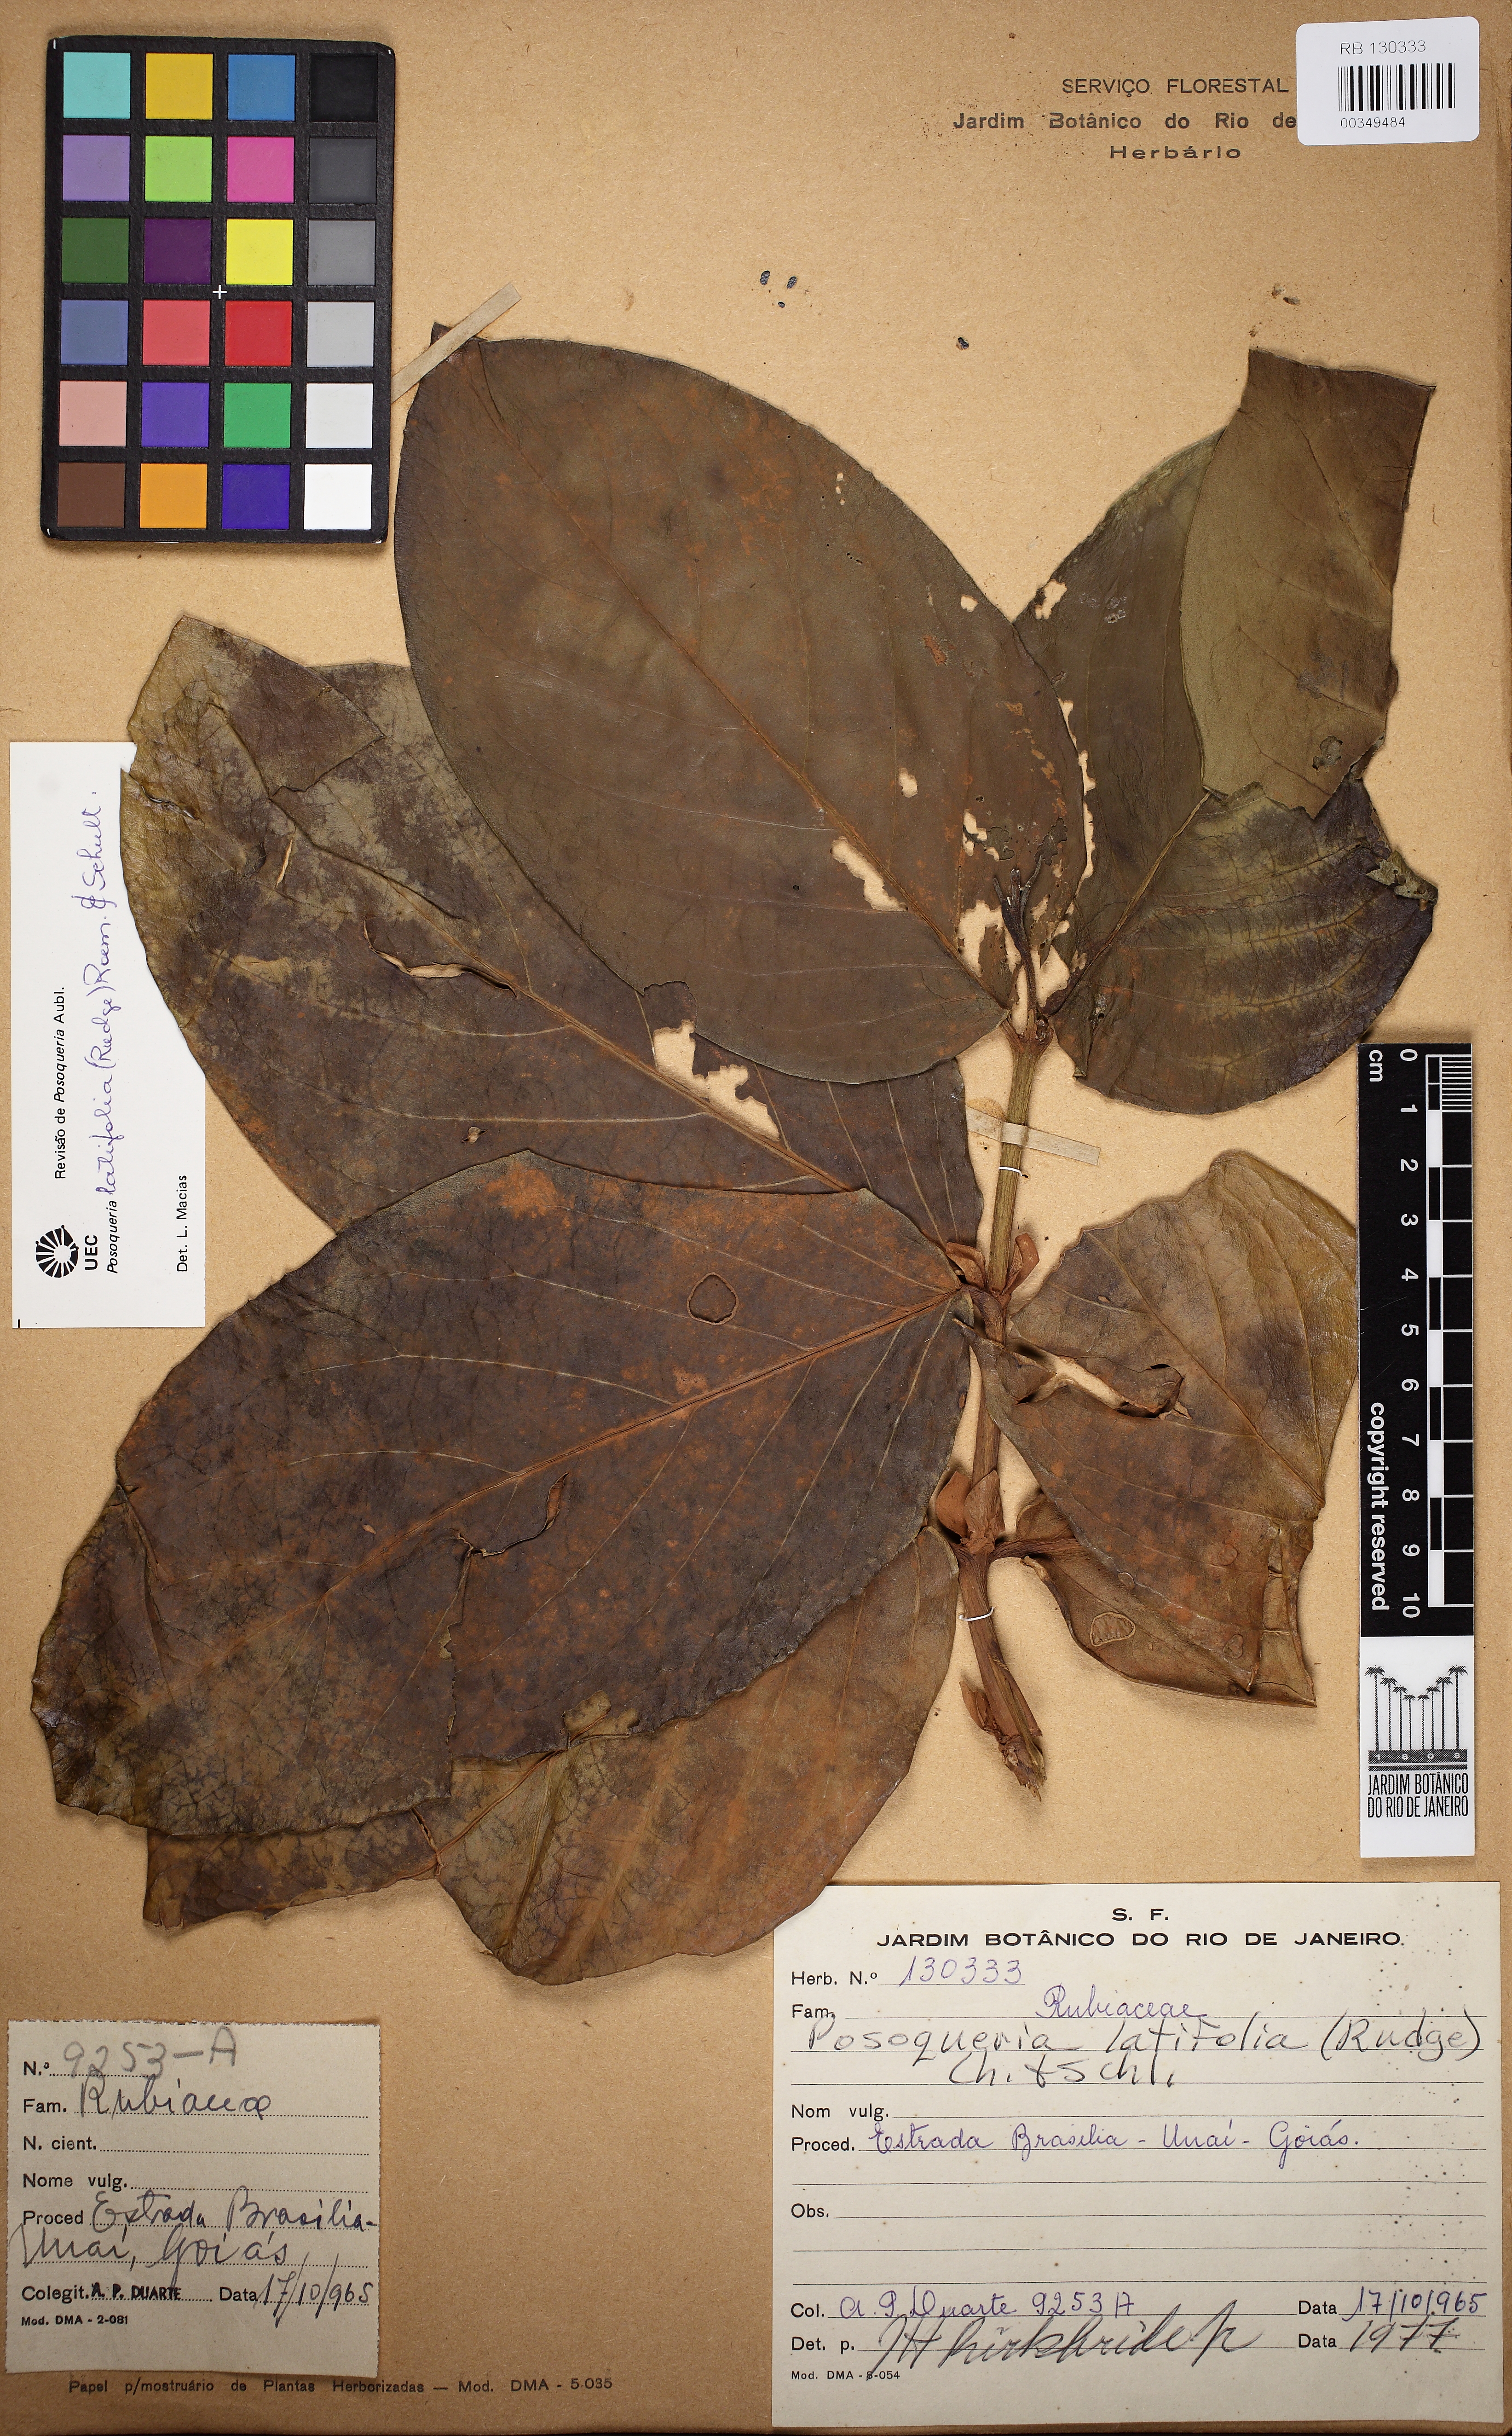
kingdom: Plantae
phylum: Tracheophyta
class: Magnoliopsida
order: Gentianales
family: Rubiaceae
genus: Posoqueria
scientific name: Posoqueria latifolia
